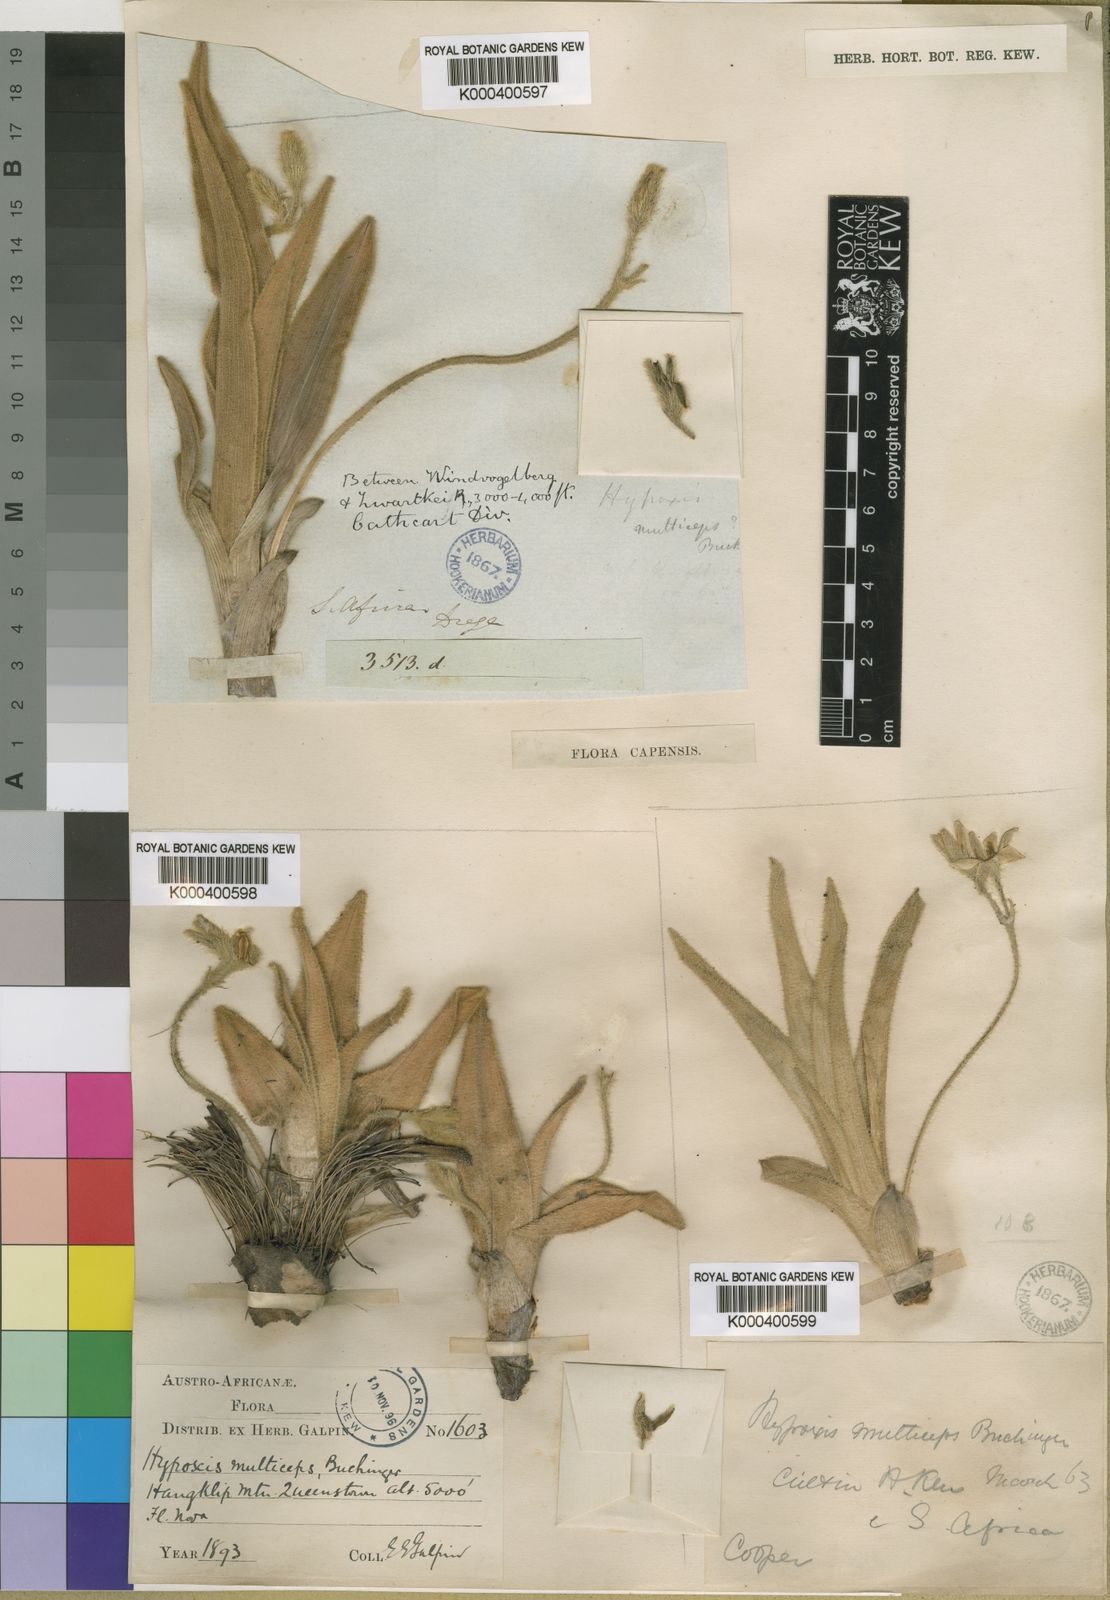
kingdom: Plantae
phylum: Tracheophyta
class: Liliopsida
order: Asparagales
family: Hypoxidaceae
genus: Hypoxis
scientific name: Hypoxis
